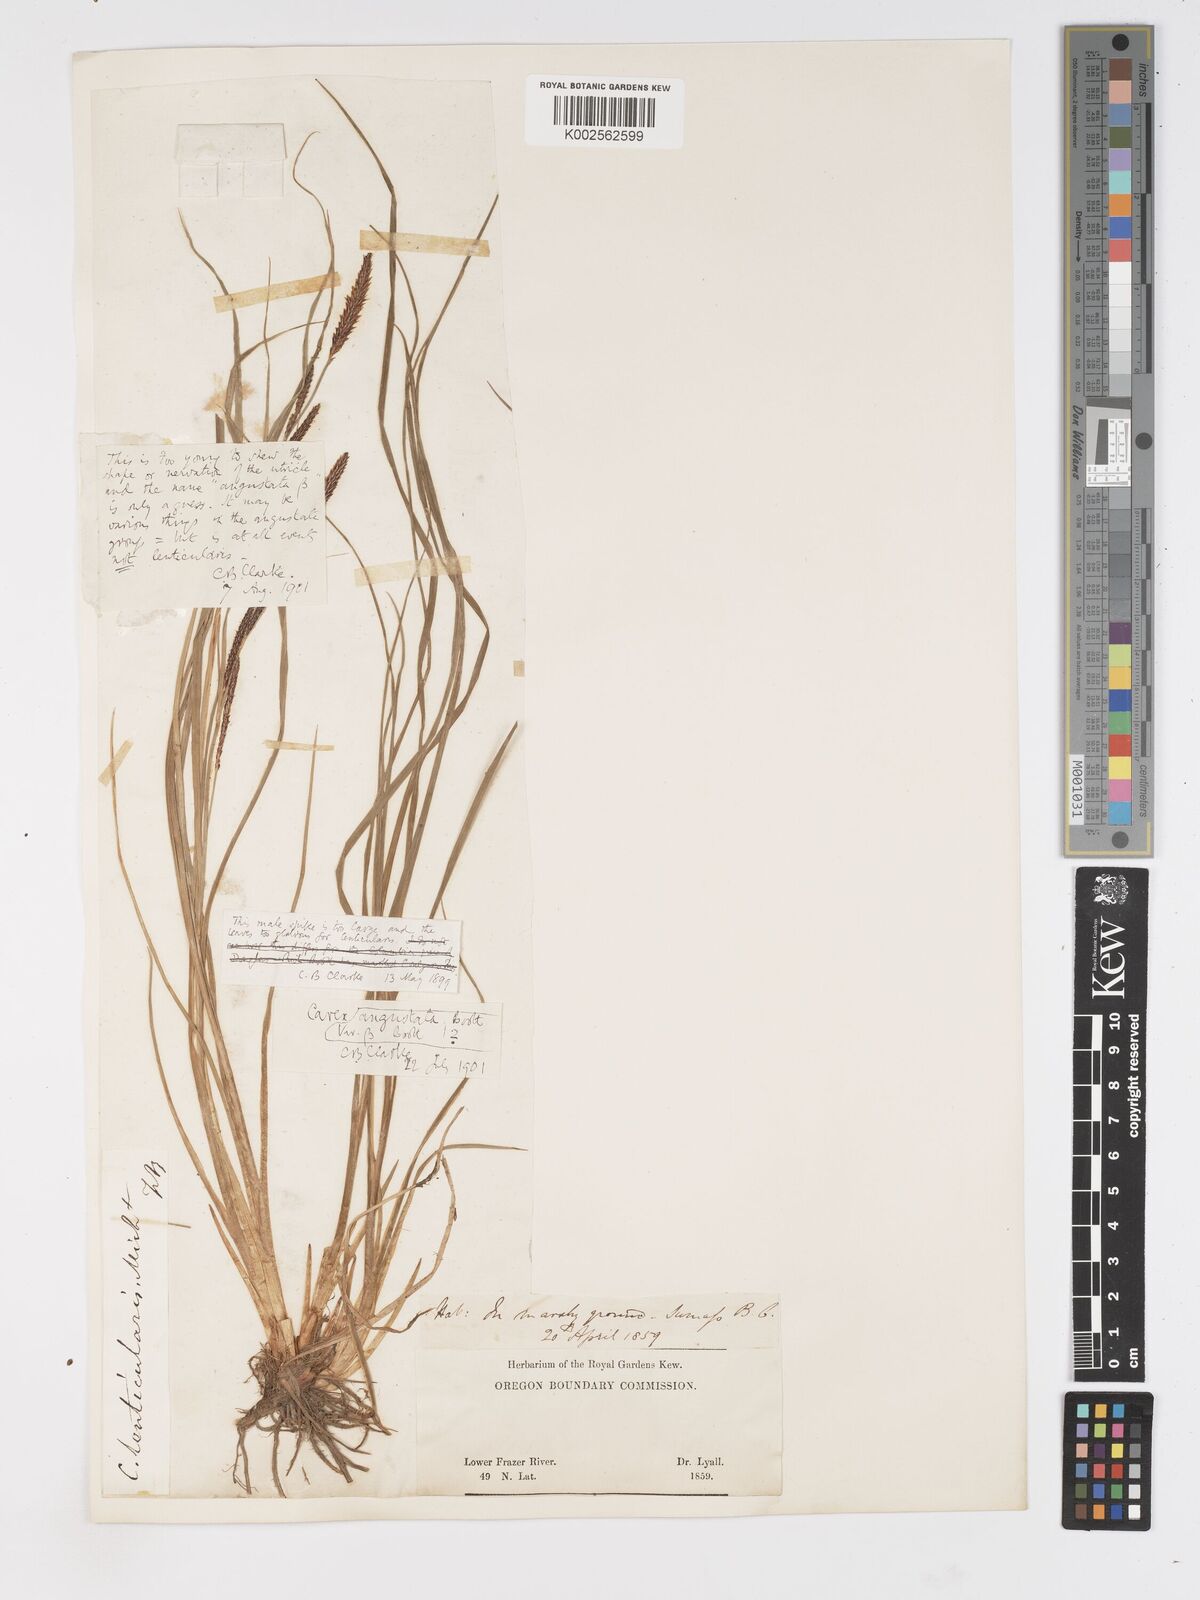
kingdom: Plantae
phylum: Tracheophyta
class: Liliopsida
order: Poales
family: Cyperaceae
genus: Carex
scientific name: Carex stricta
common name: Hummock sedge
